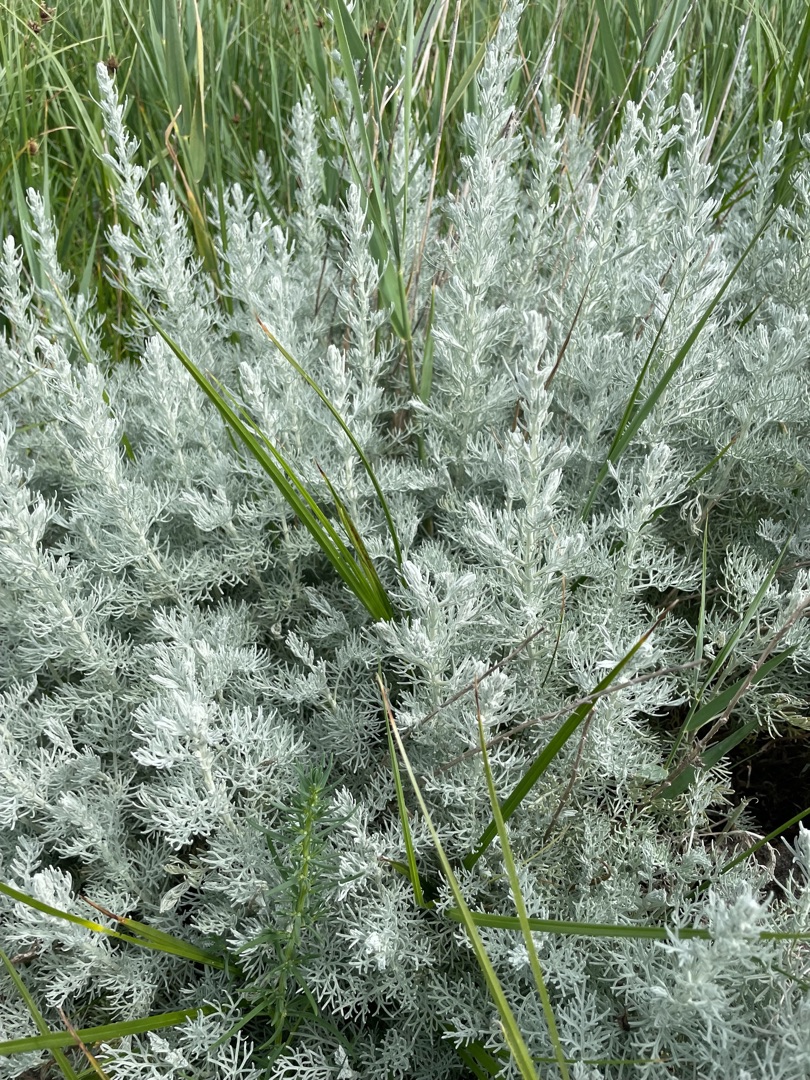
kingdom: Plantae
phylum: Tracheophyta
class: Magnoliopsida
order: Asterales
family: Asteraceae
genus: Artemisia
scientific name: Artemisia maritima
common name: Strandmalurt
